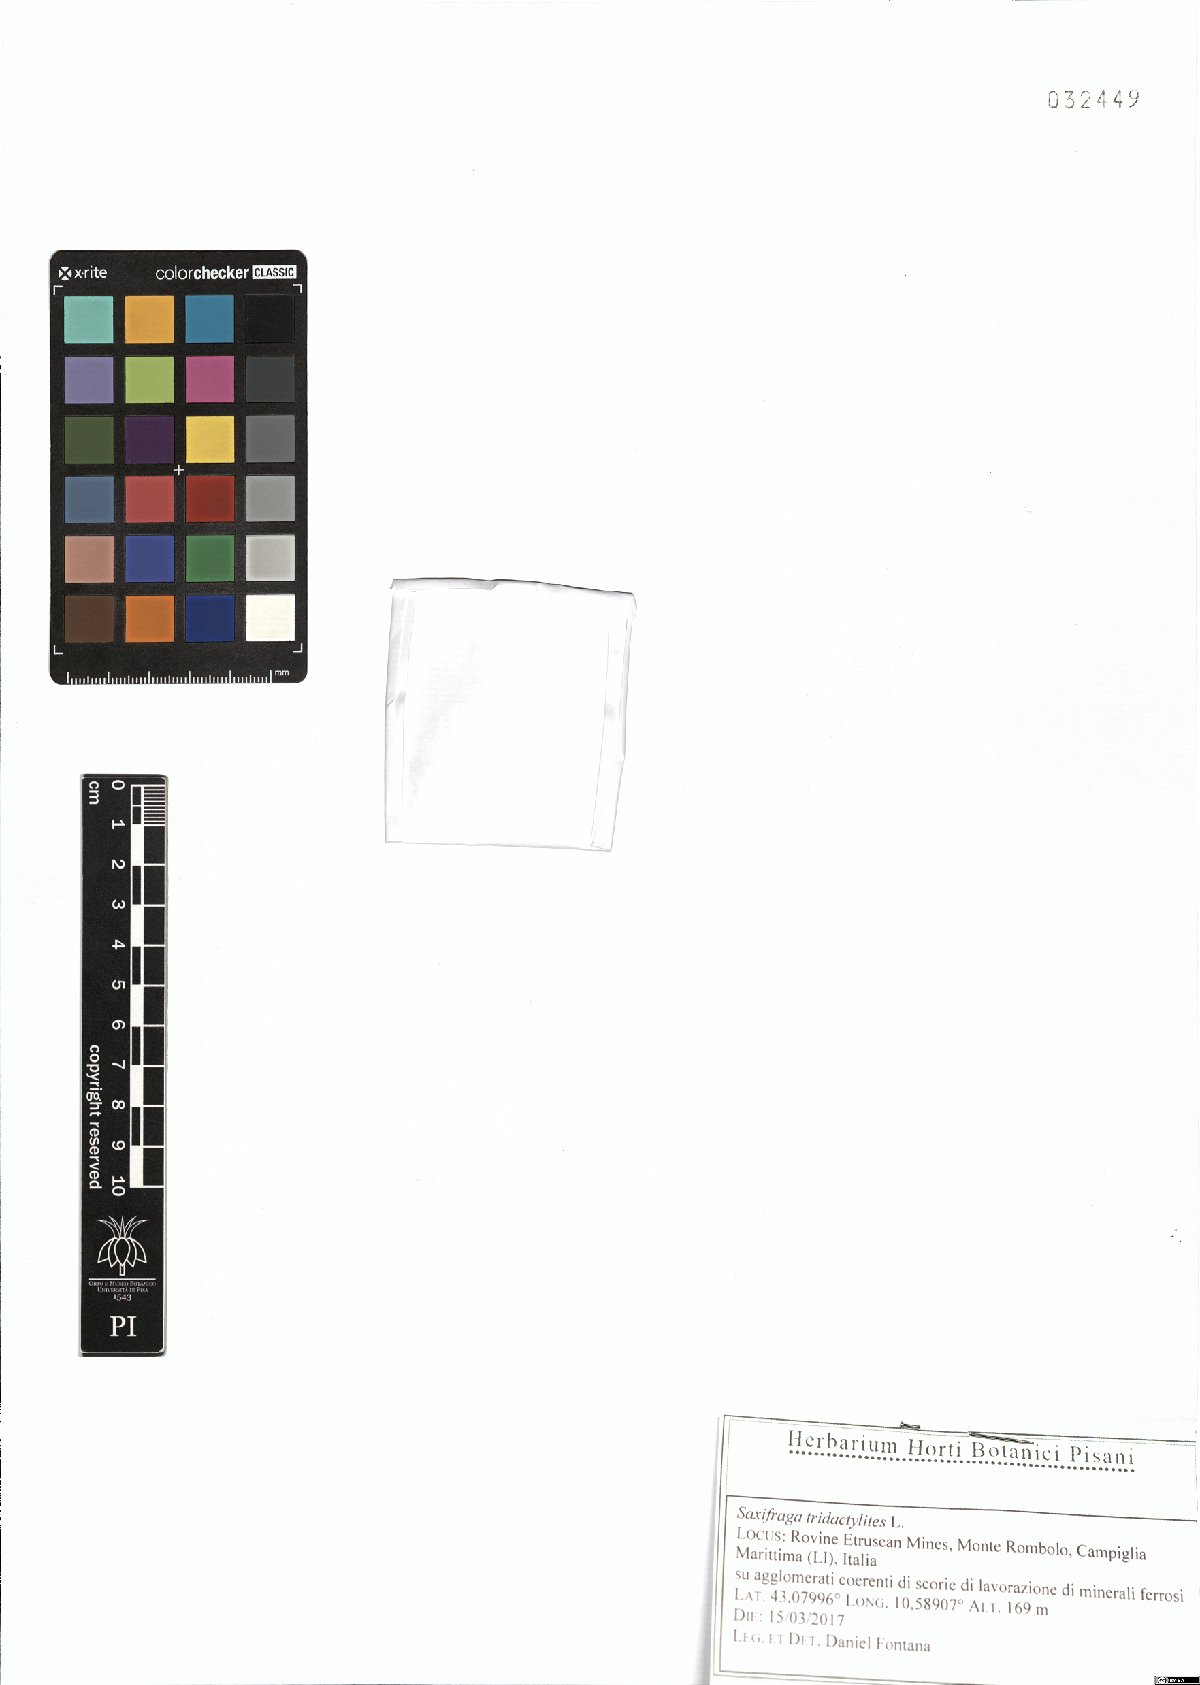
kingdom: Plantae
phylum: Tracheophyta
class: Polypodiopsida
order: Polypodiales
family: Polypodiaceae
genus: Polypodium
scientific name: Polypodium cambricum
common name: Southern polypody
